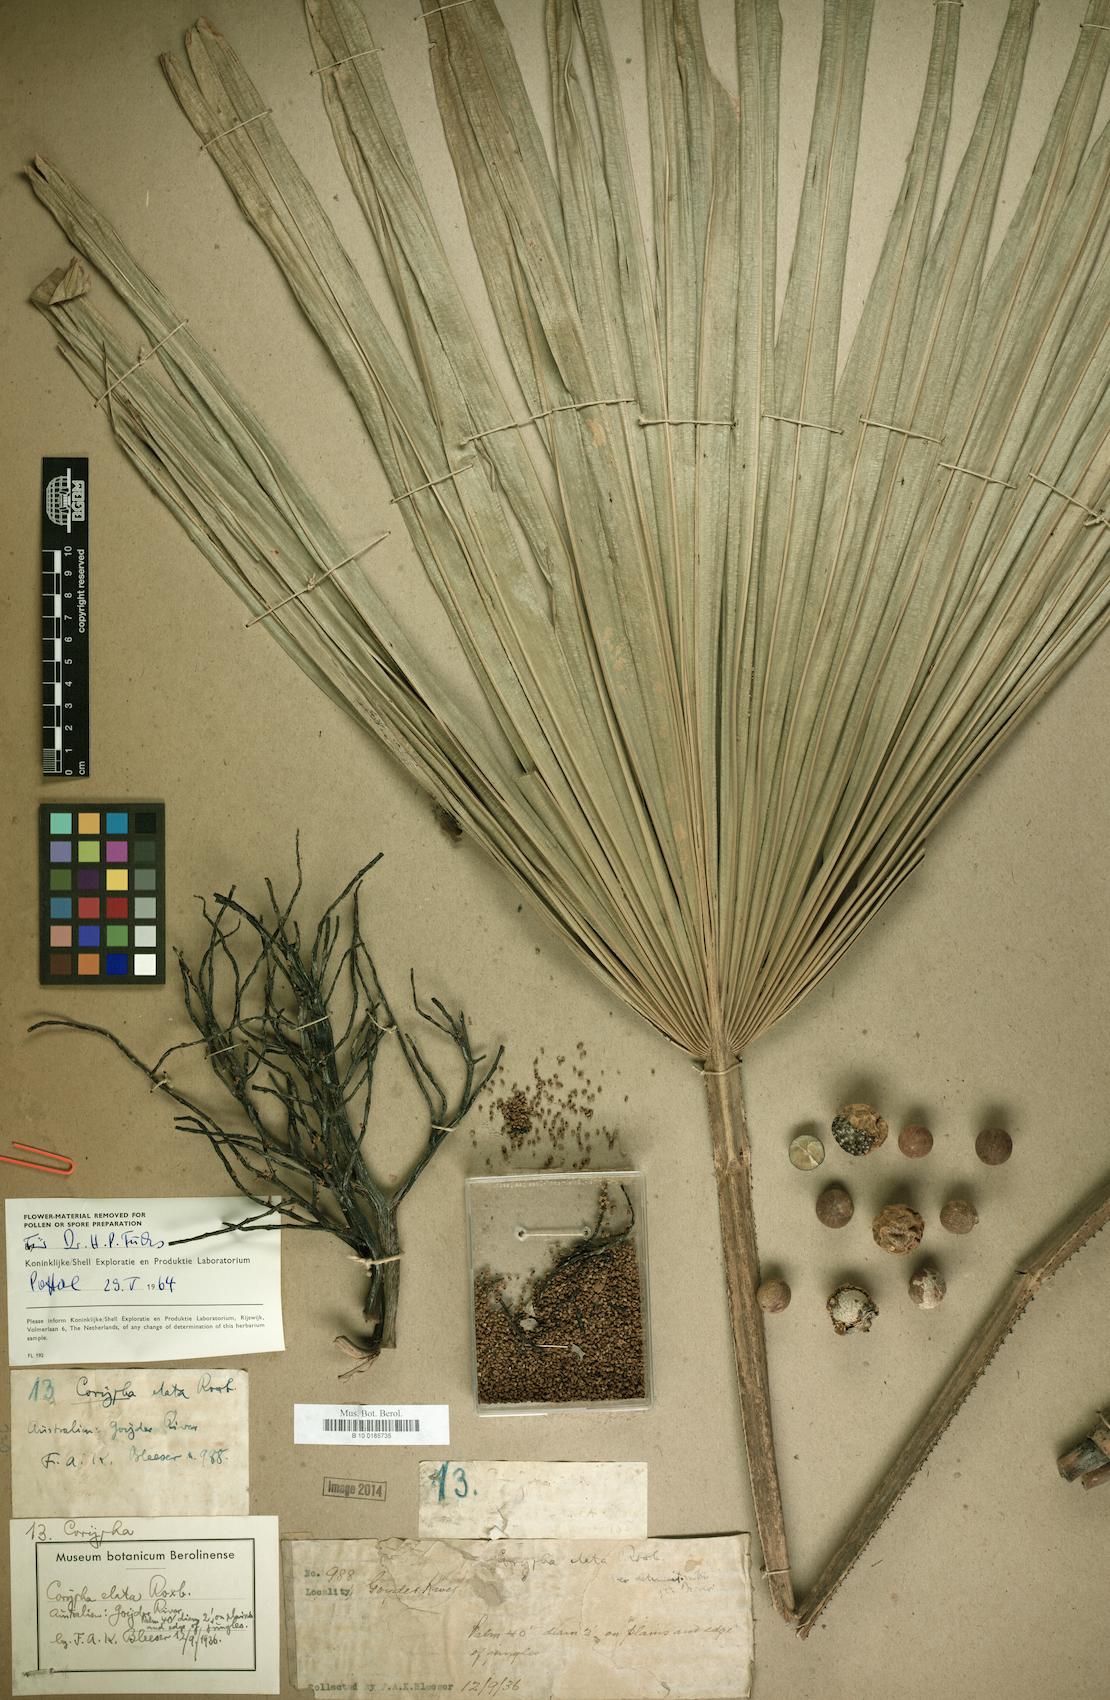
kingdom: Plantae
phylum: Tracheophyta
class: Liliopsida
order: Arecales
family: Arecaceae
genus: Corypha
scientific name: Corypha utan
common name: Buri palm
